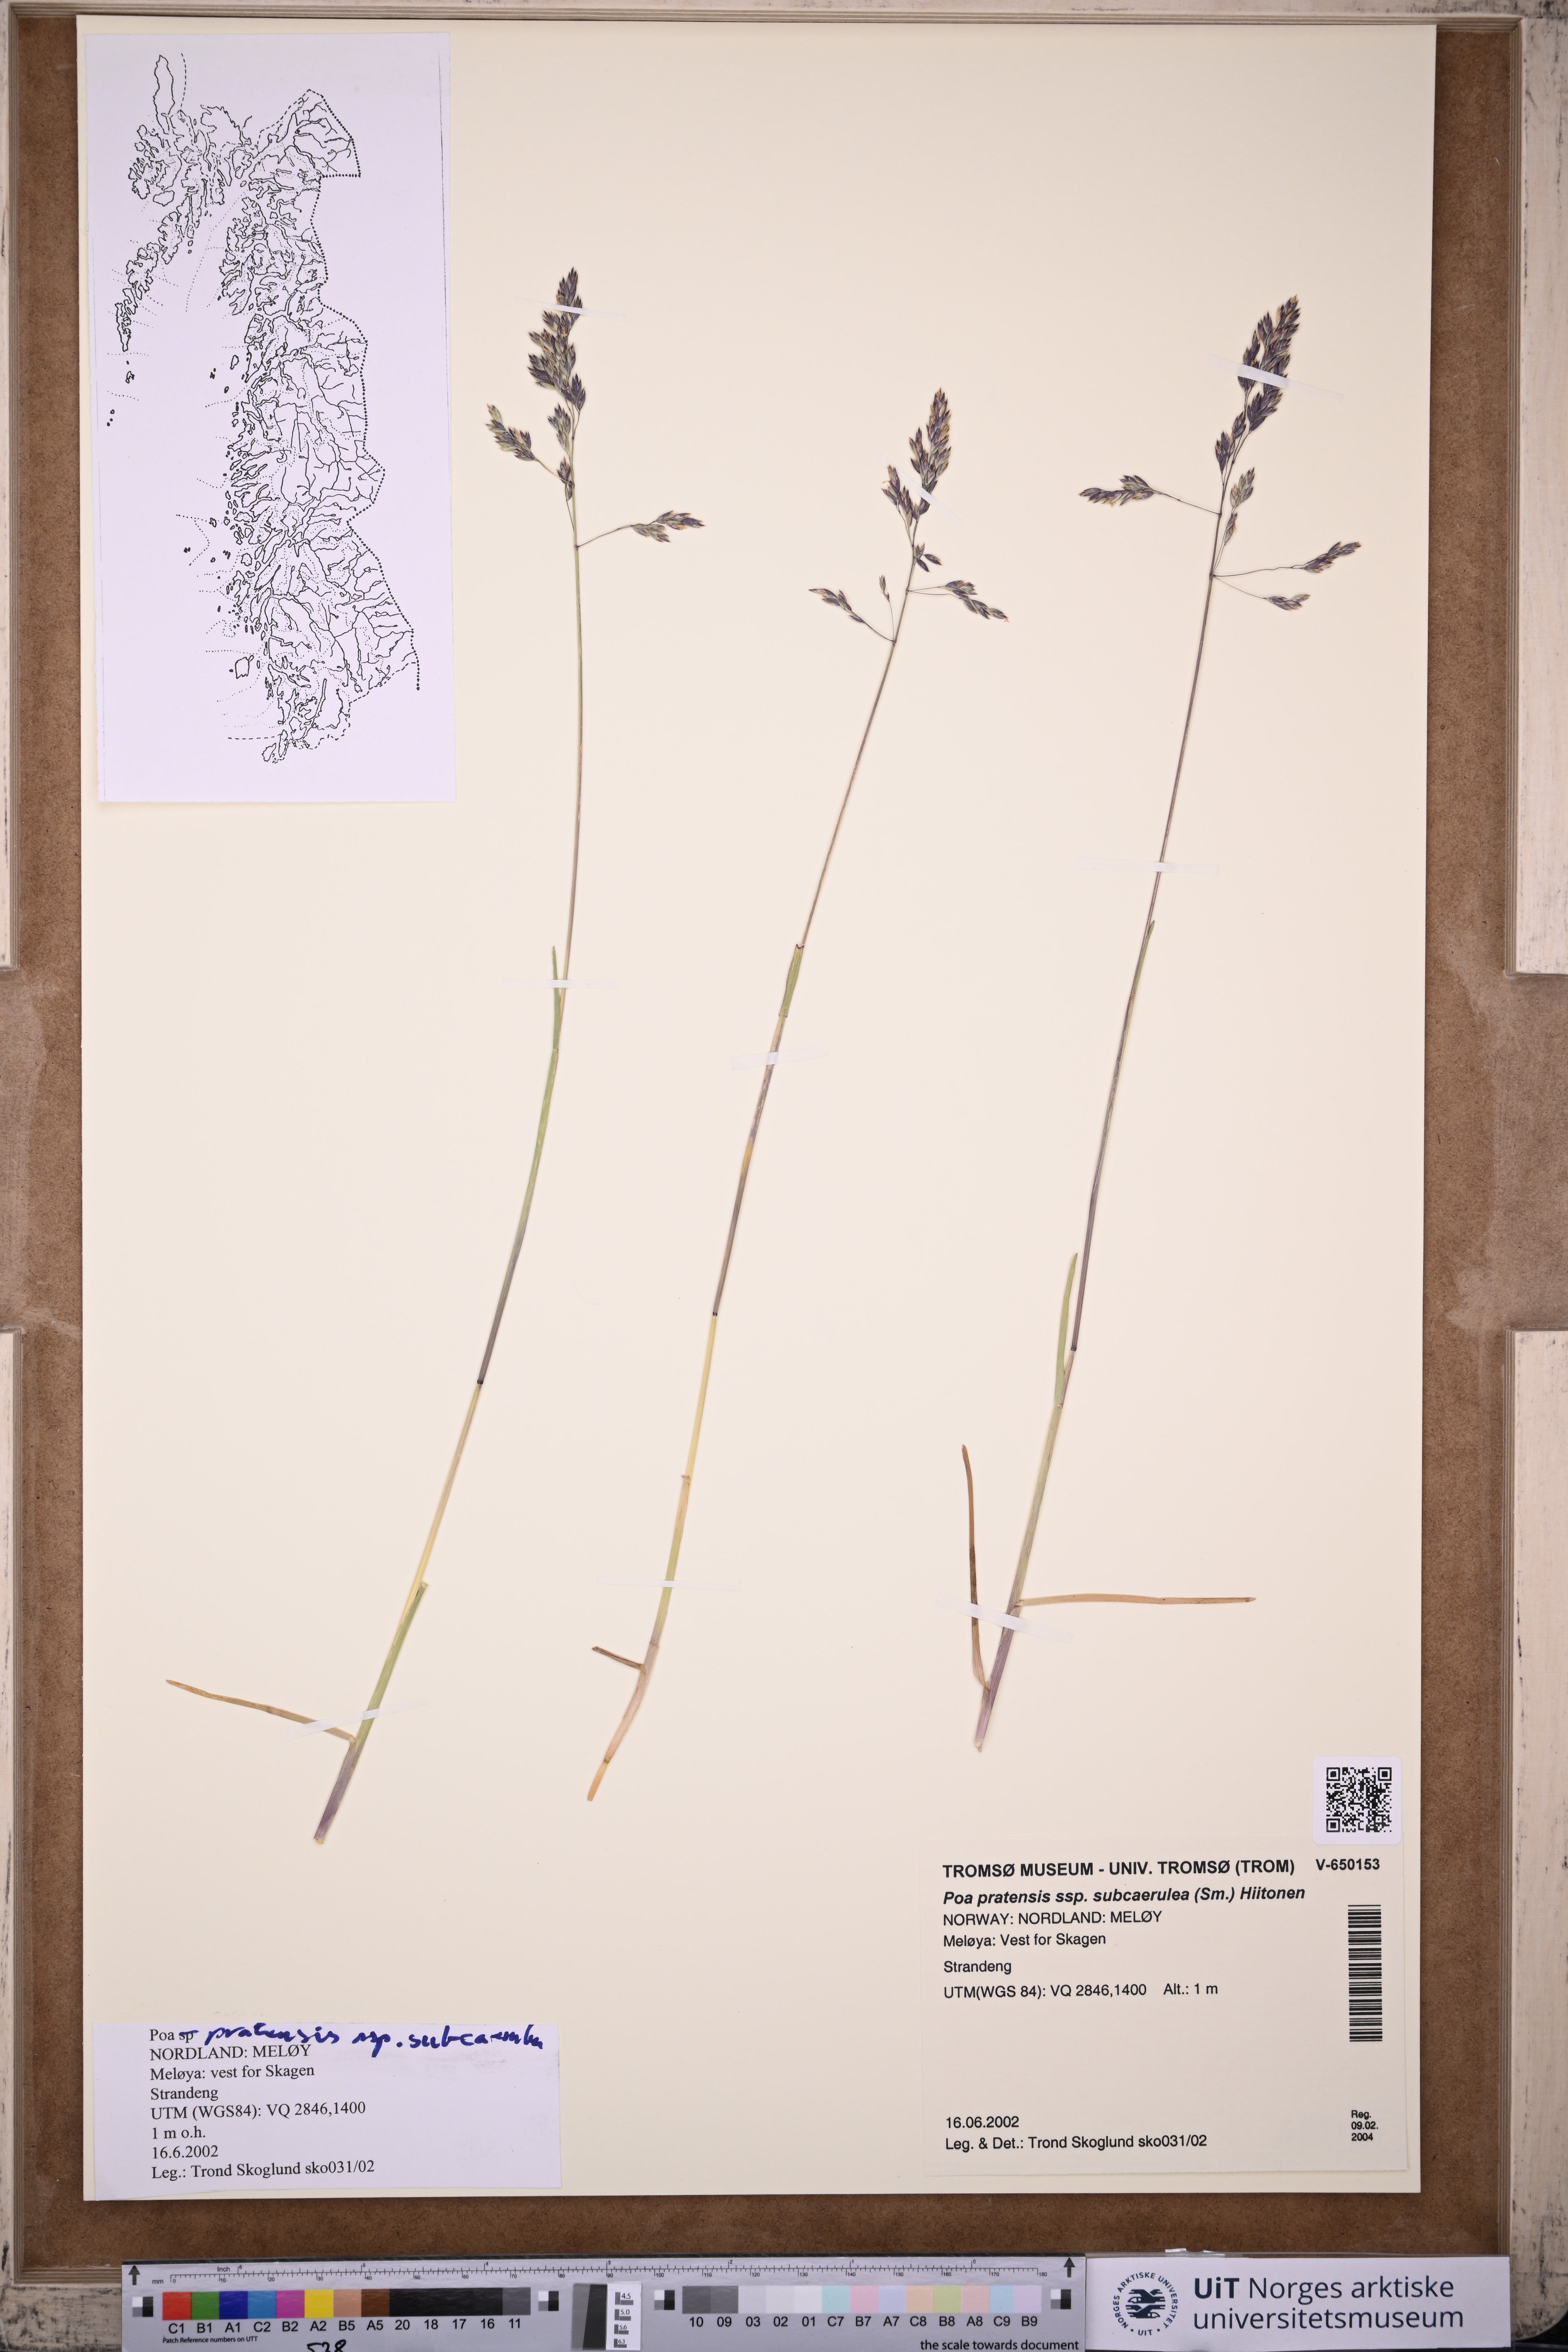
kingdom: Plantae
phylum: Tracheophyta
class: Liliopsida
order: Poales
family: Poaceae
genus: Poa
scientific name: Poa humilis
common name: Spreading meadow-grass
